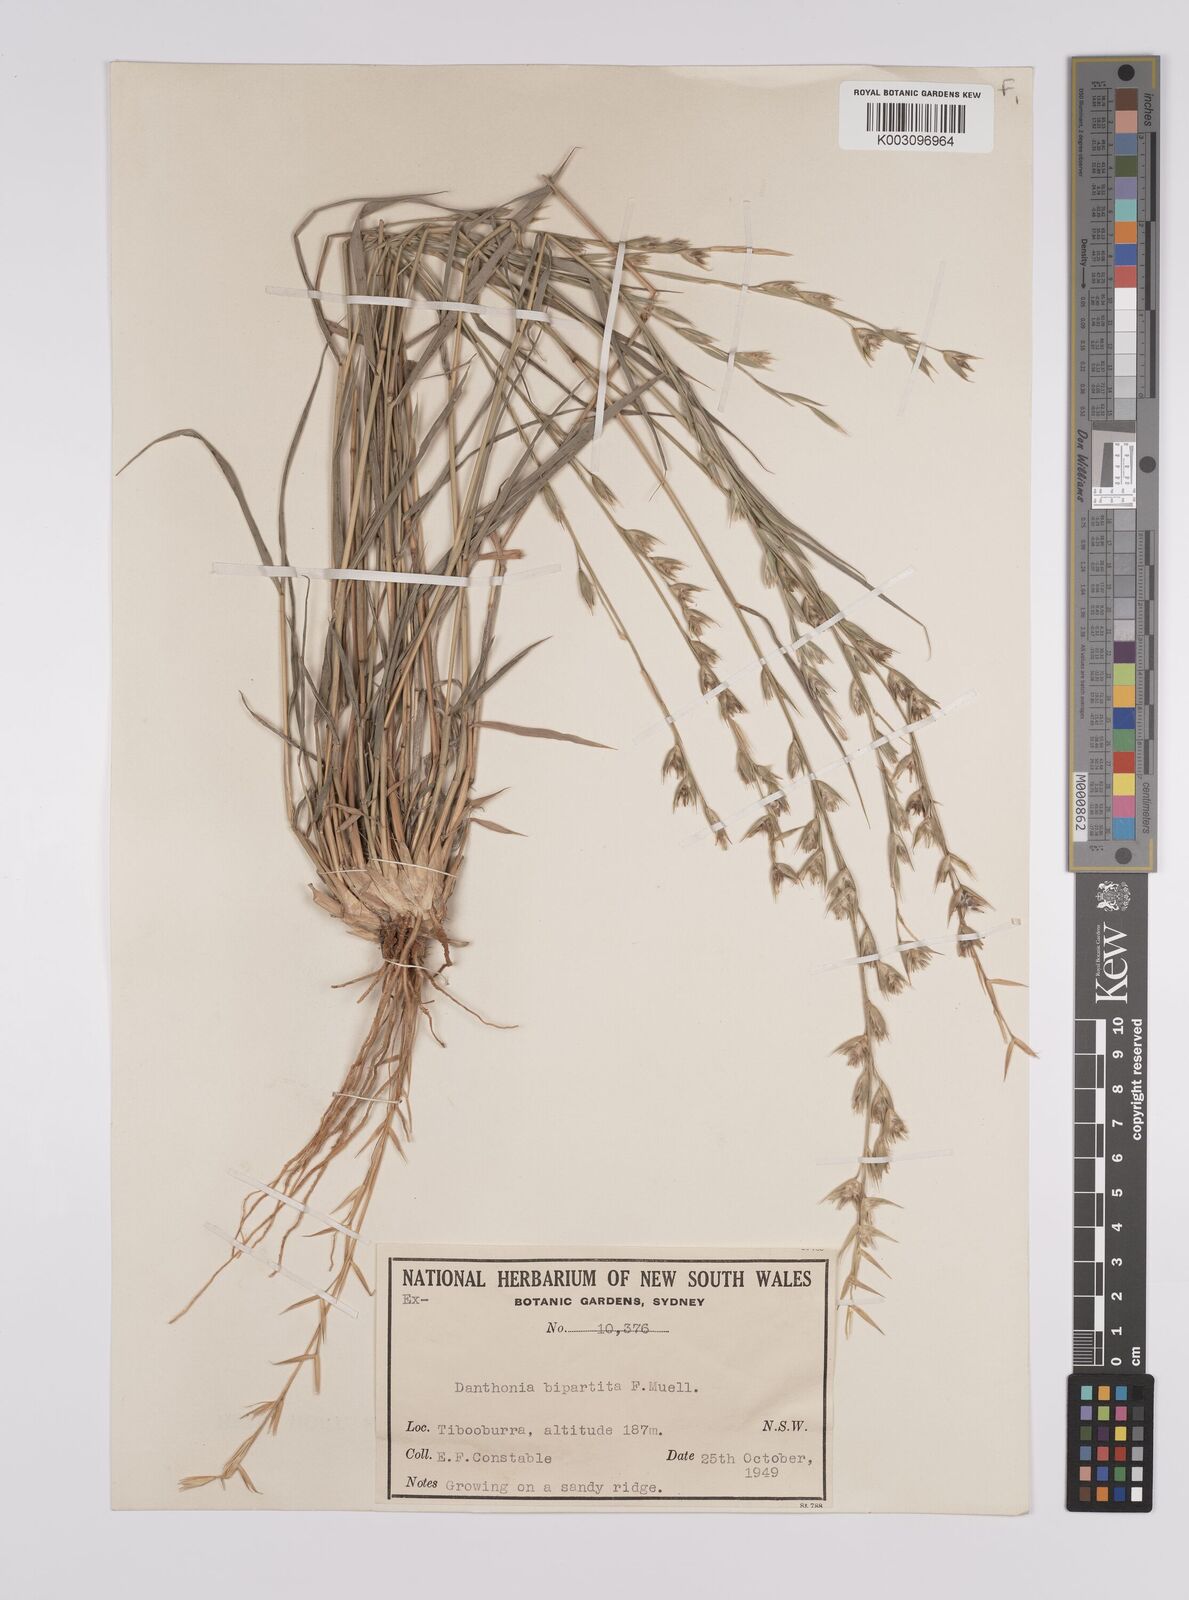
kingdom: Plantae
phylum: Tracheophyta
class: Liliopsida
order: Poales
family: Poaceae
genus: Monachather
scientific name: Monachather paradoxus
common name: Bandicoot grass
